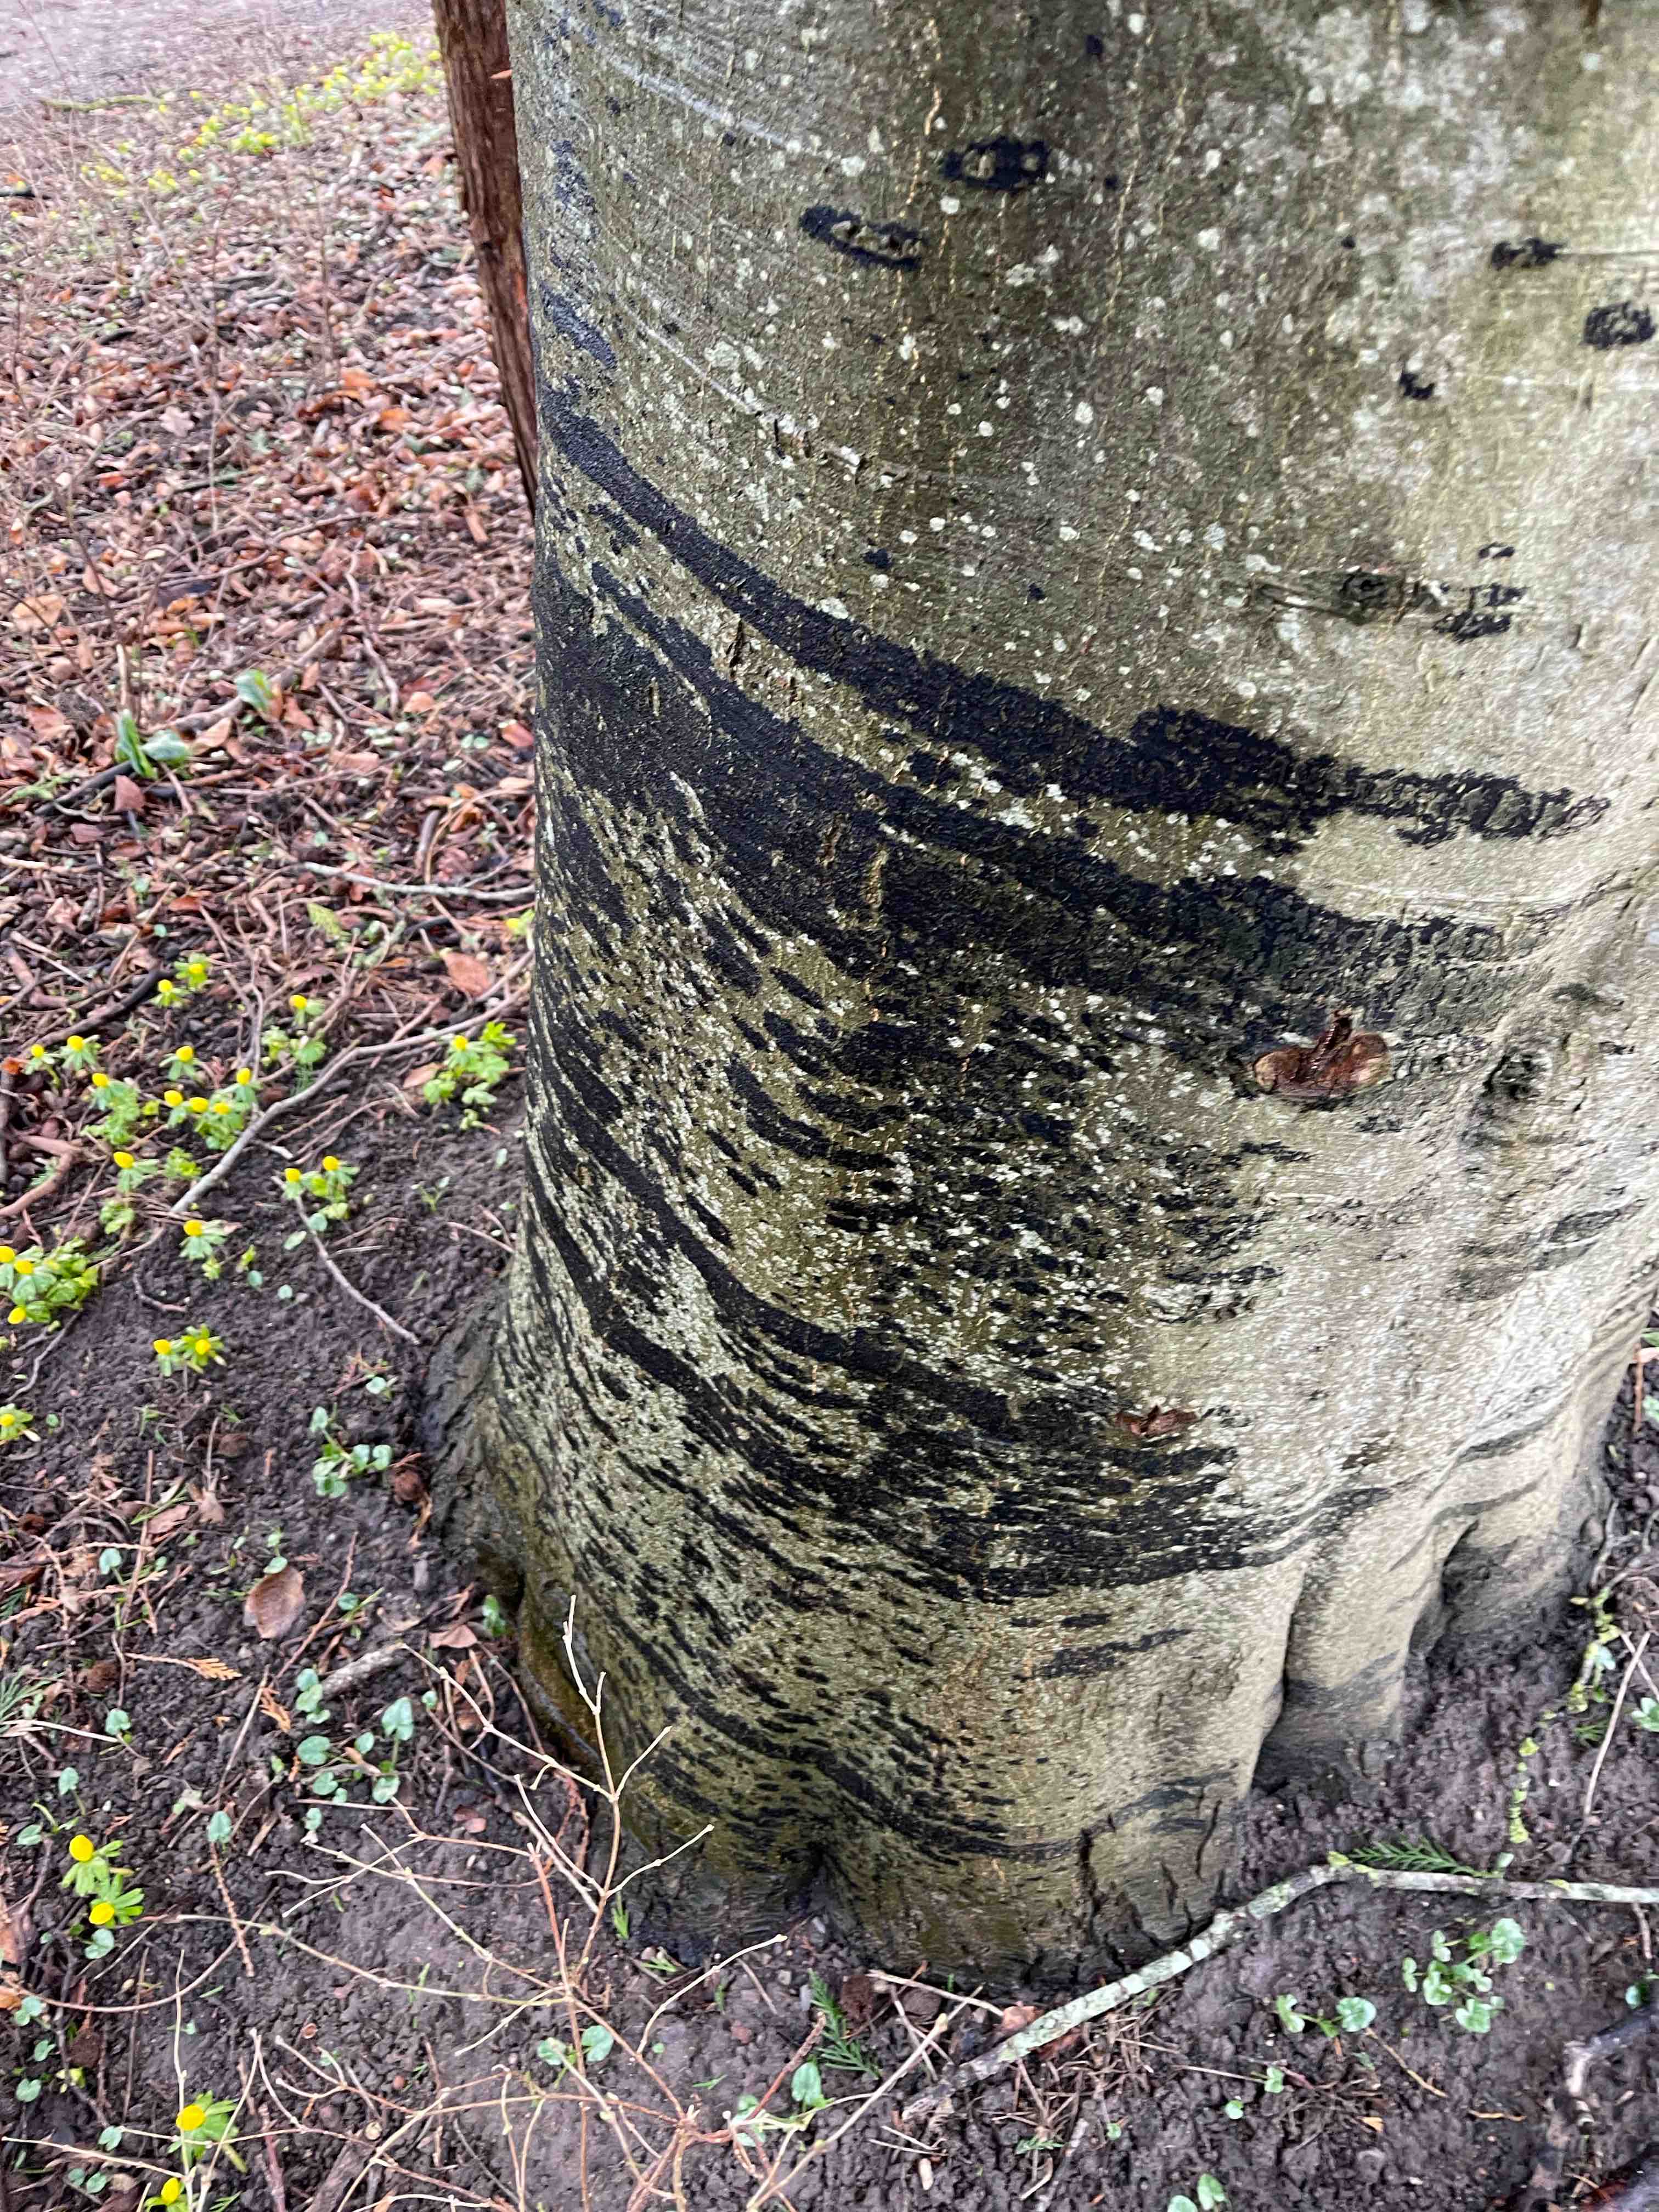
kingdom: Fungi
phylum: Ascomycota
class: Leotiomycetes
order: Rhytismatales
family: Ascodichaenaceae
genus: Ascodichaena
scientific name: Ascodichaena rugosa
